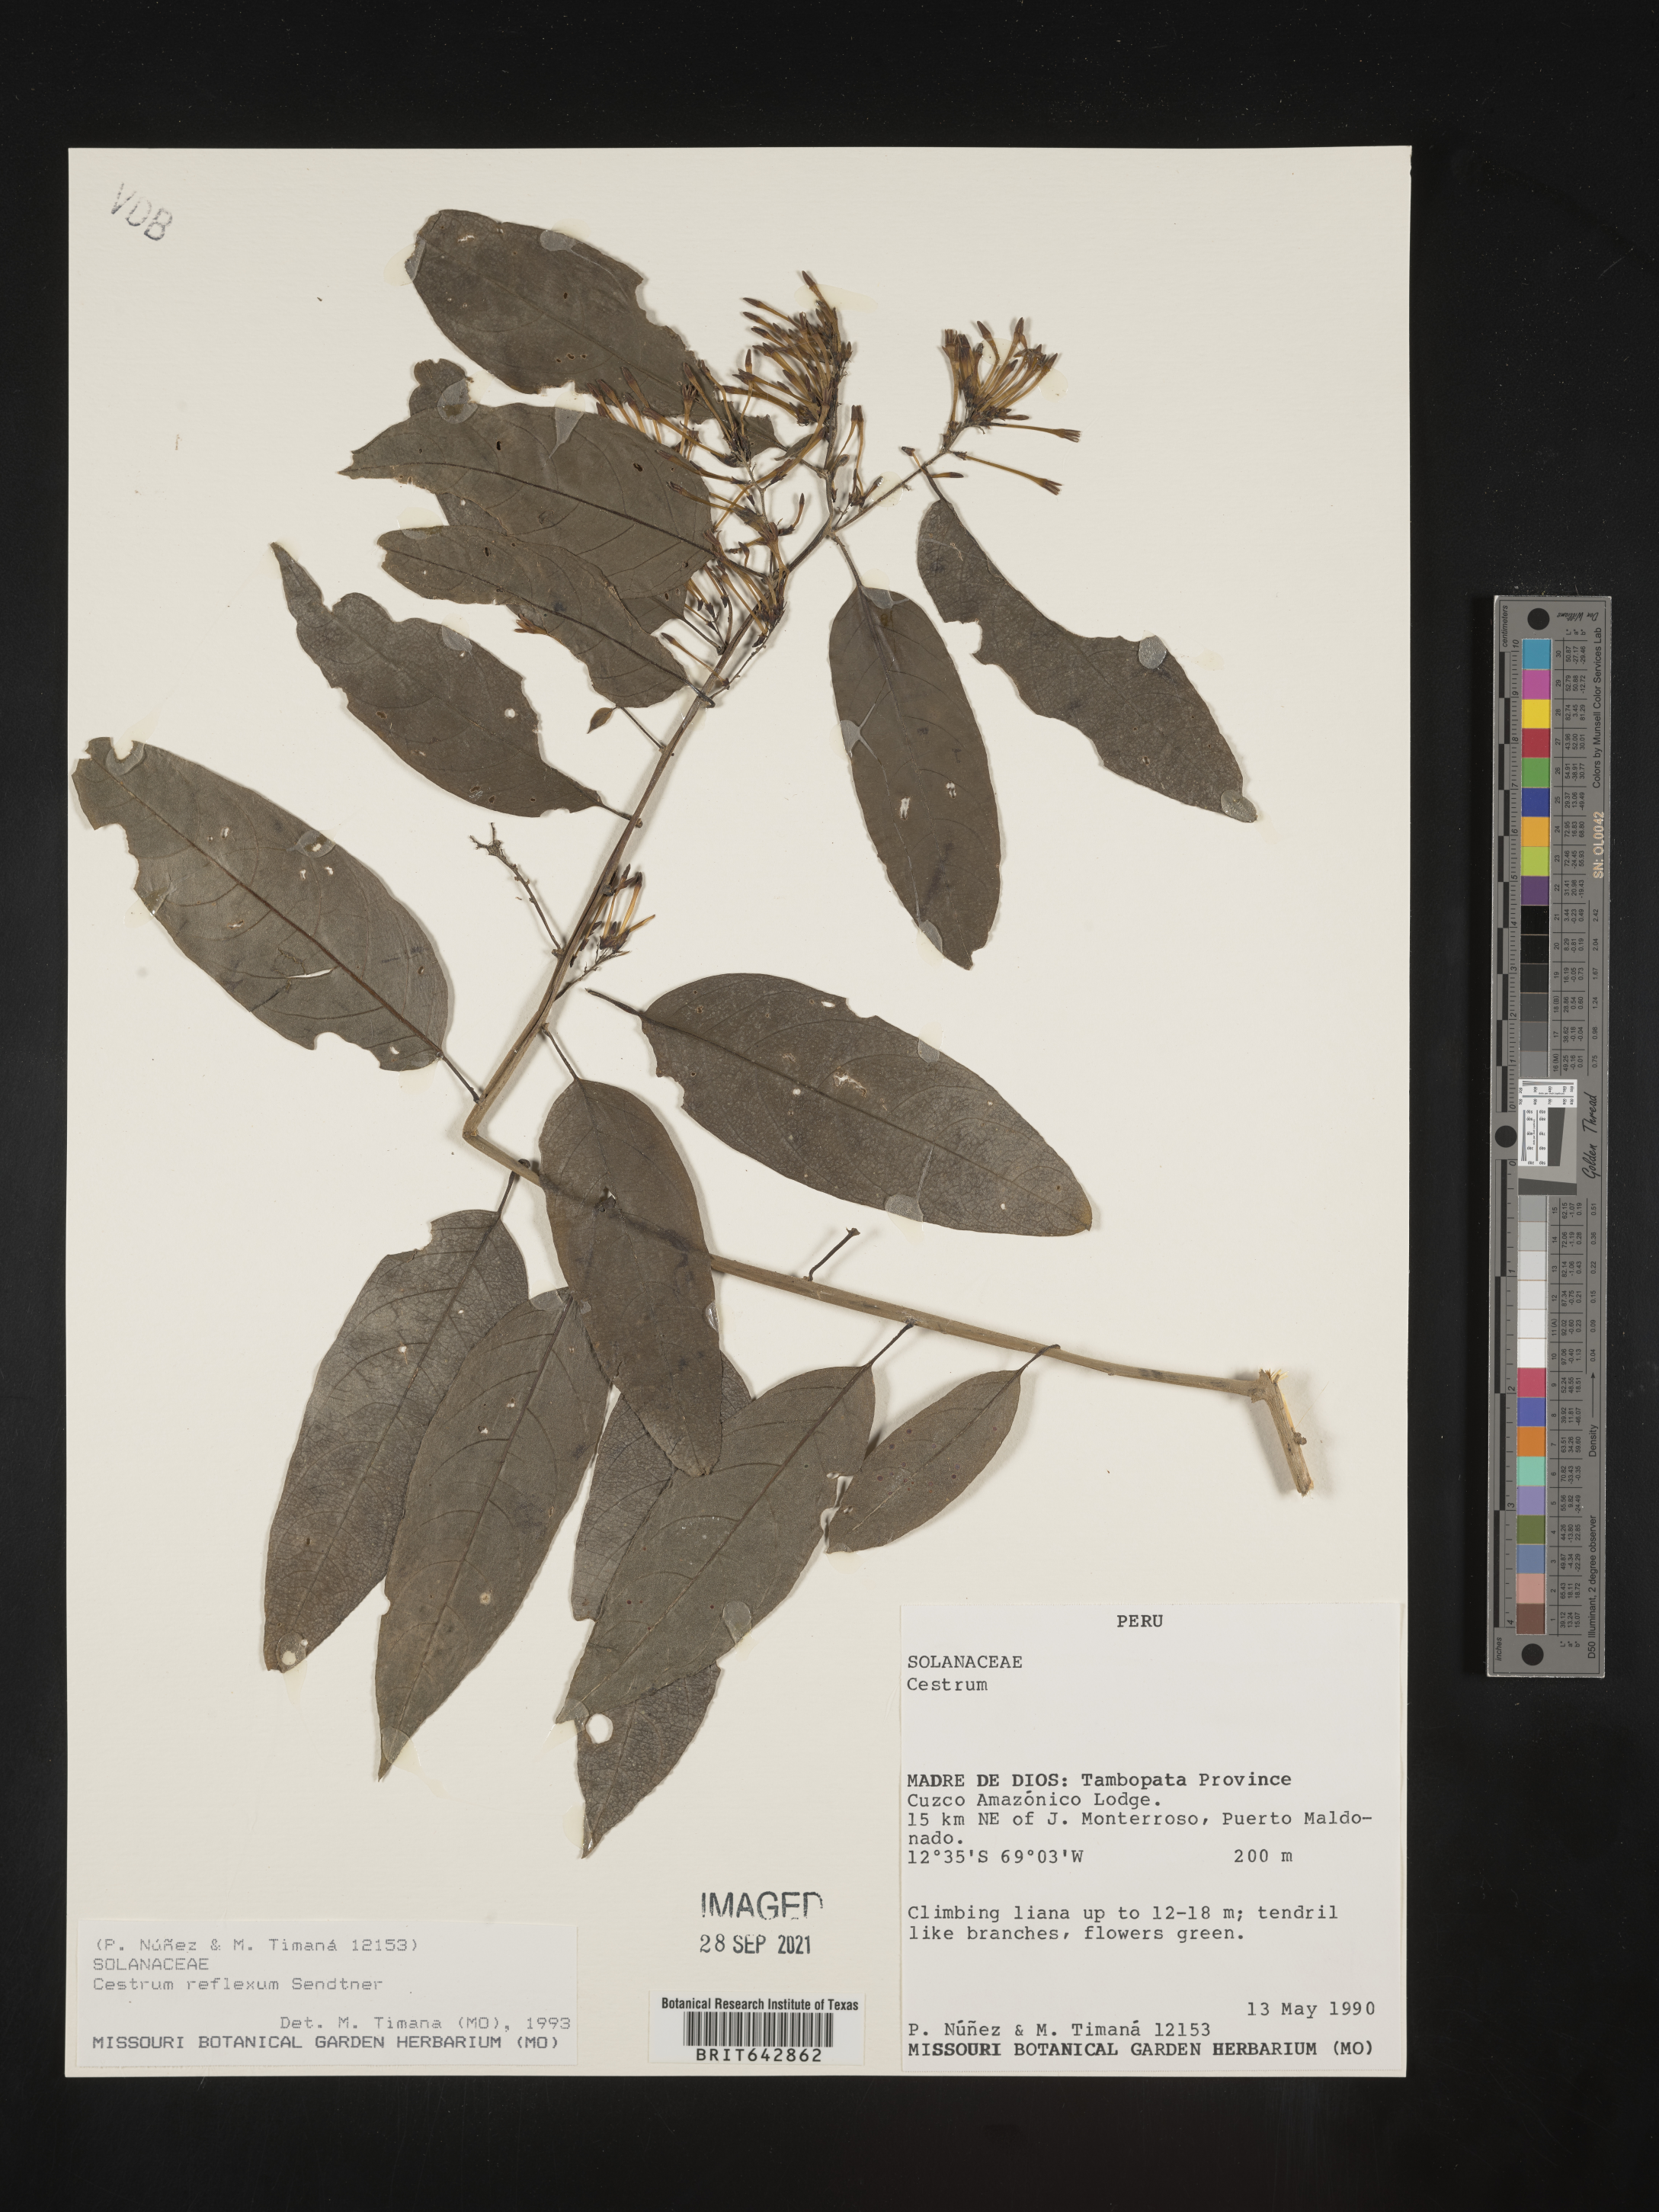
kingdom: Plantae
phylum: Tracheophyta
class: Magnoliopsida
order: Solanales
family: Solanaceae
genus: Cestrum
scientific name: Cestrum
